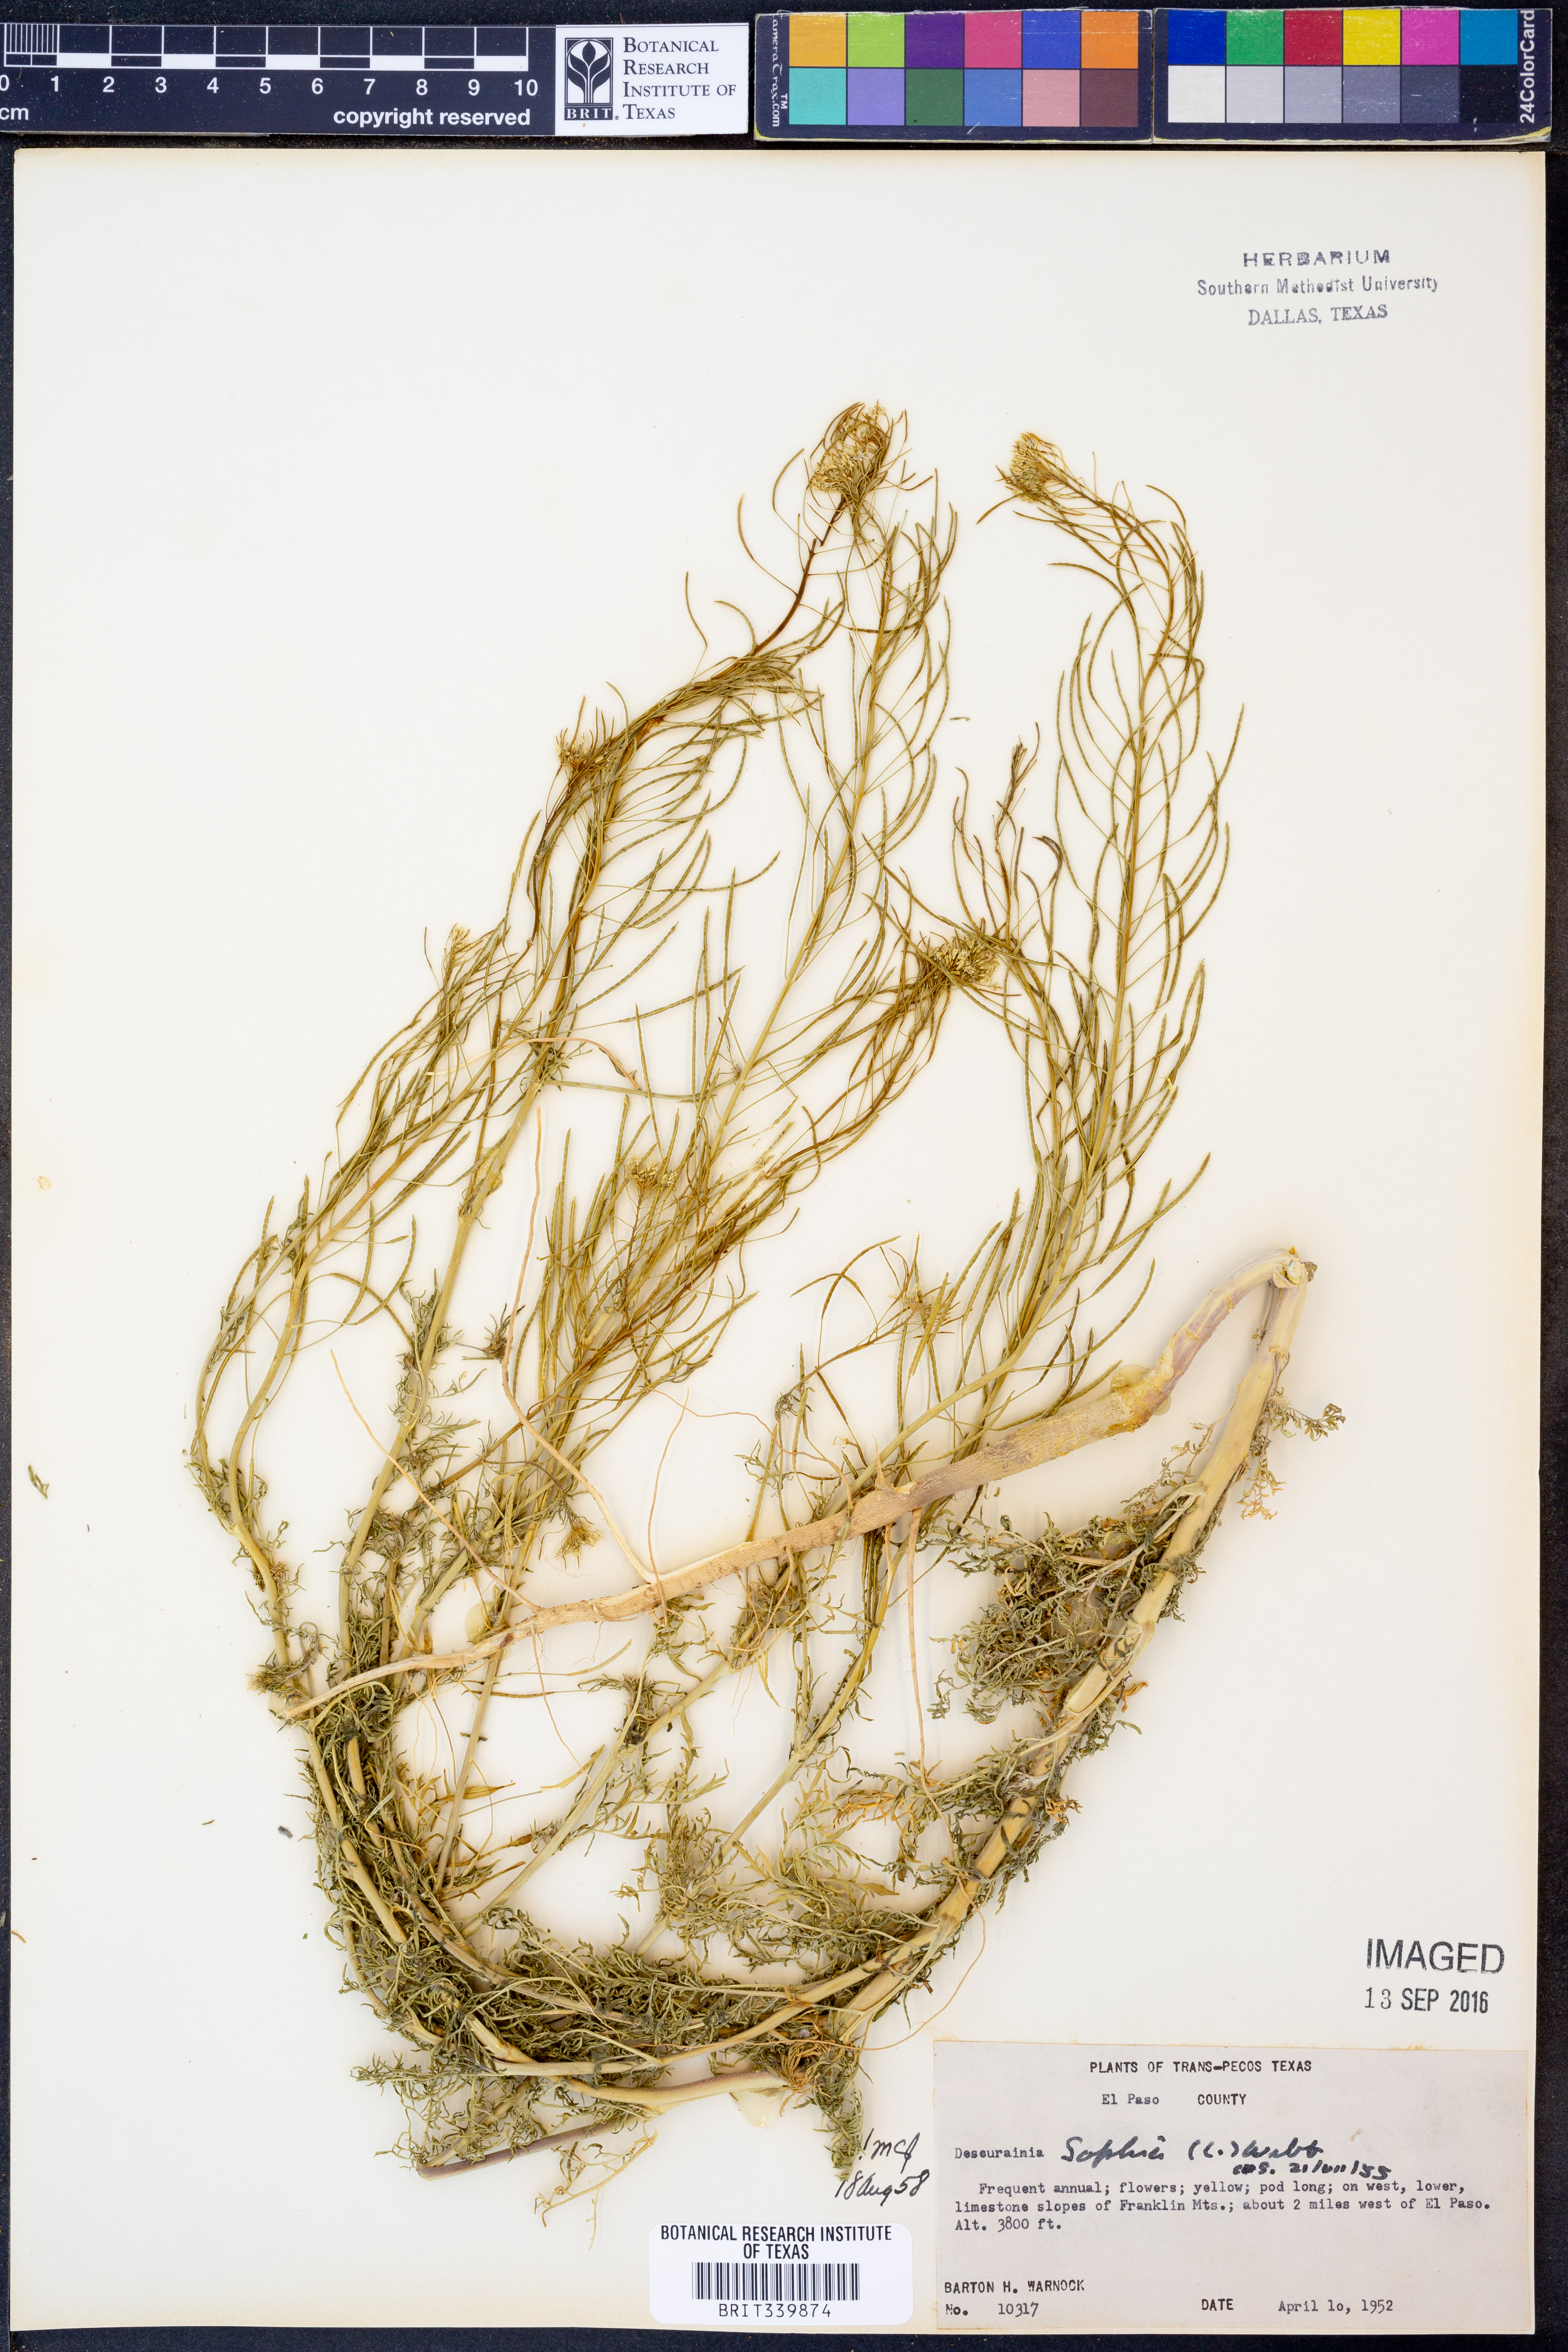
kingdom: Plantae
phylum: Tracheophyta
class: Magnoliopsida
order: Brassicales
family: Brassicaceae
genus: Descurainia
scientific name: Descurainia sophia
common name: Flixweed
